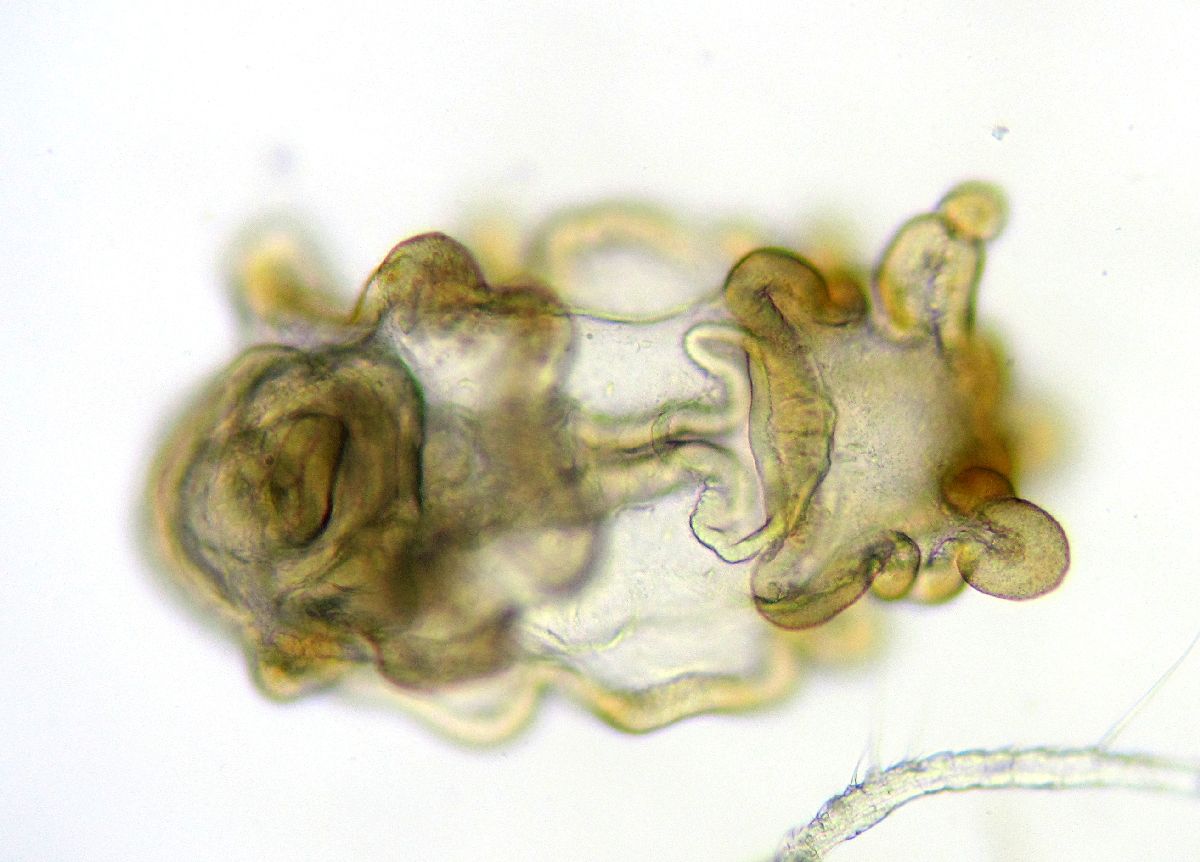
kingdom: Animalia
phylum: Echinodermata
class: Asteroidea
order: Forcipulatida
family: Asteriidae
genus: Asterias
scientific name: Asterias rubens
